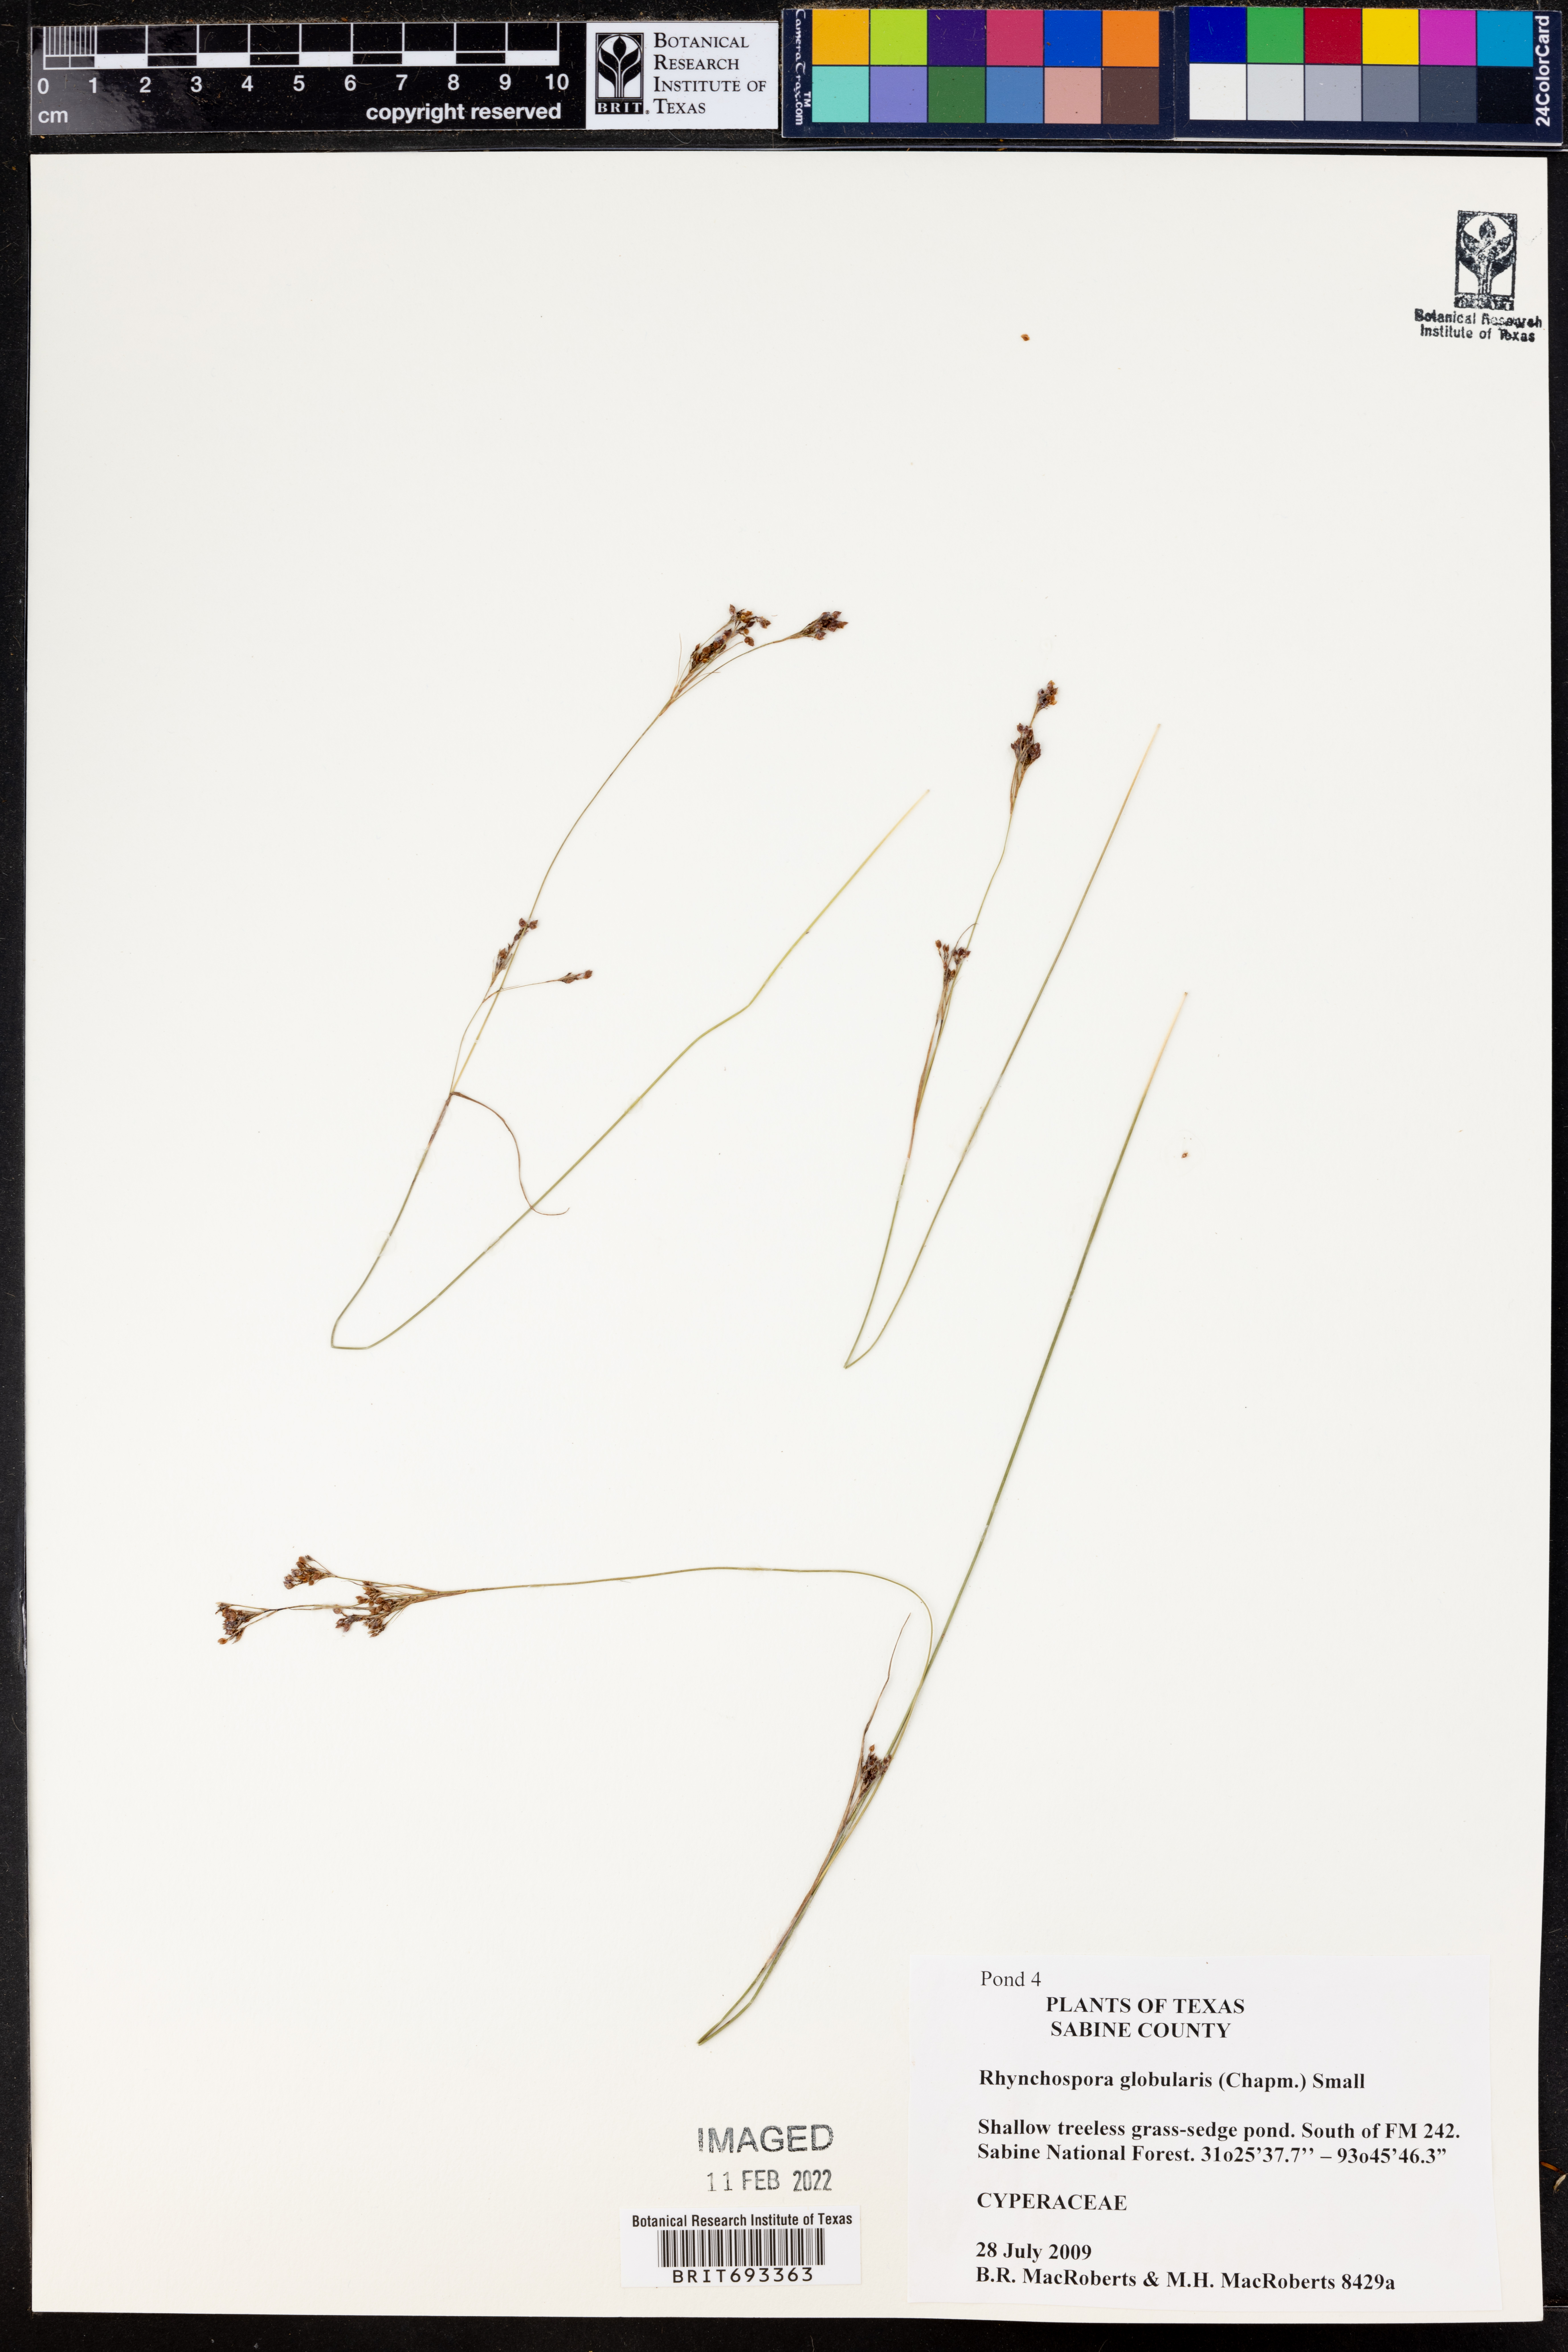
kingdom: Plantae
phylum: Tracheophyta
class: Liliopsida
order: Poales
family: Cyperaceae
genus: Rhynchospora
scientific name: Rhynchospora globularis
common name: Globe beaksedge
